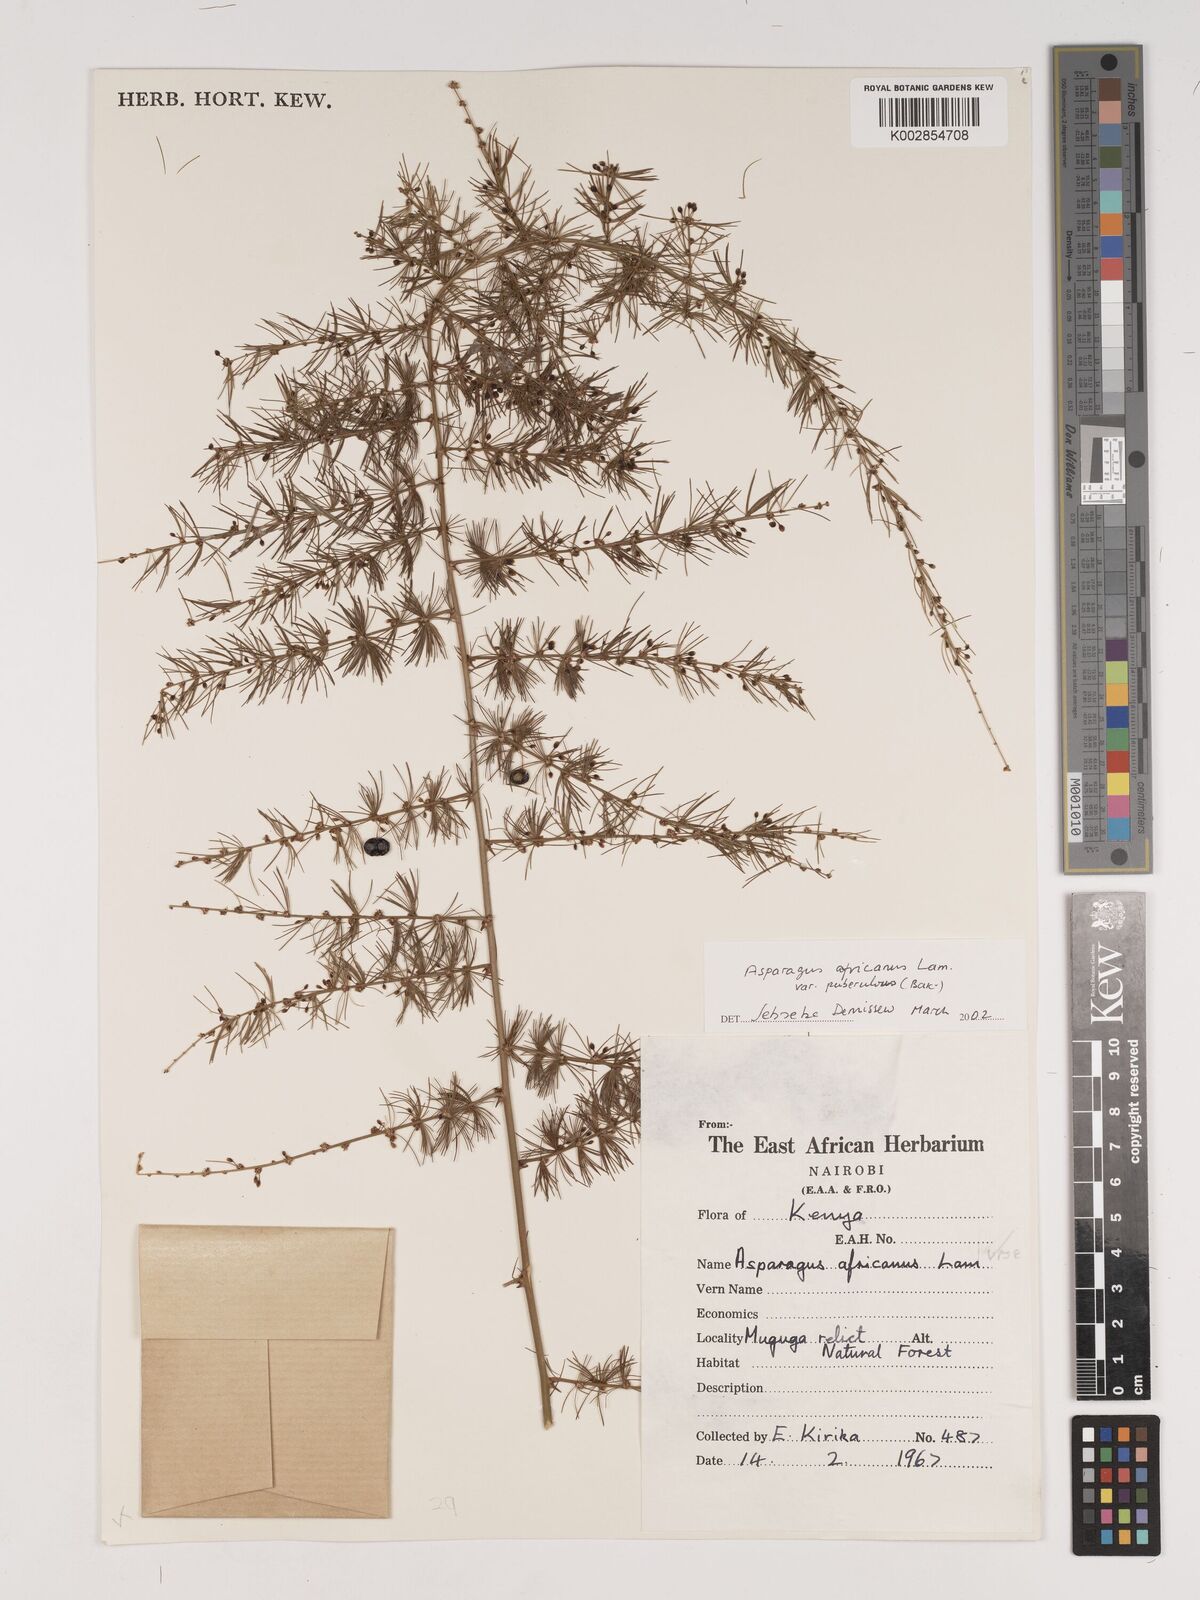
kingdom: Plantae
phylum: Tracheophyta
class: Liliopsida
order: Asparagales
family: Asparagaceae
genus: Asparagus
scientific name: Asparagus africanus
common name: Asparagus-fern
